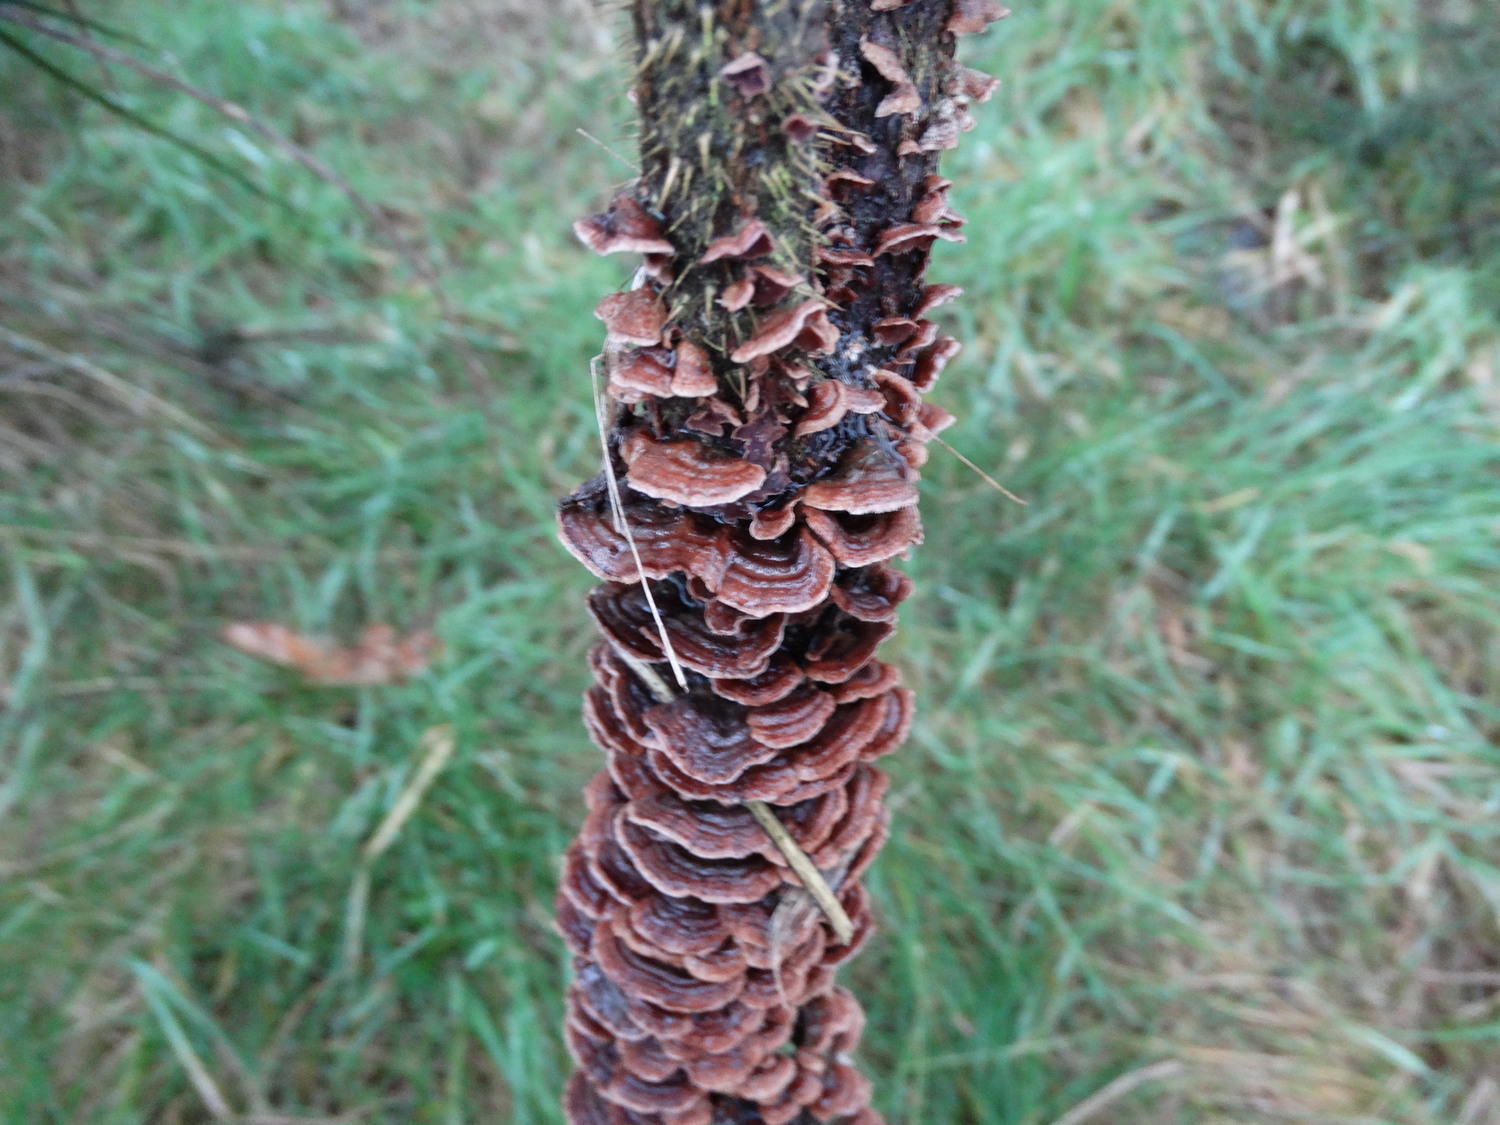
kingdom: Fungi
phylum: Basidiomycota
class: Agaricomycetes
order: Hymenochaetales
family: Hymenochaetaceae
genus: Hydnoporia
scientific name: Hydnoporia tabacina
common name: tobaksbrun ruslædersvamp
